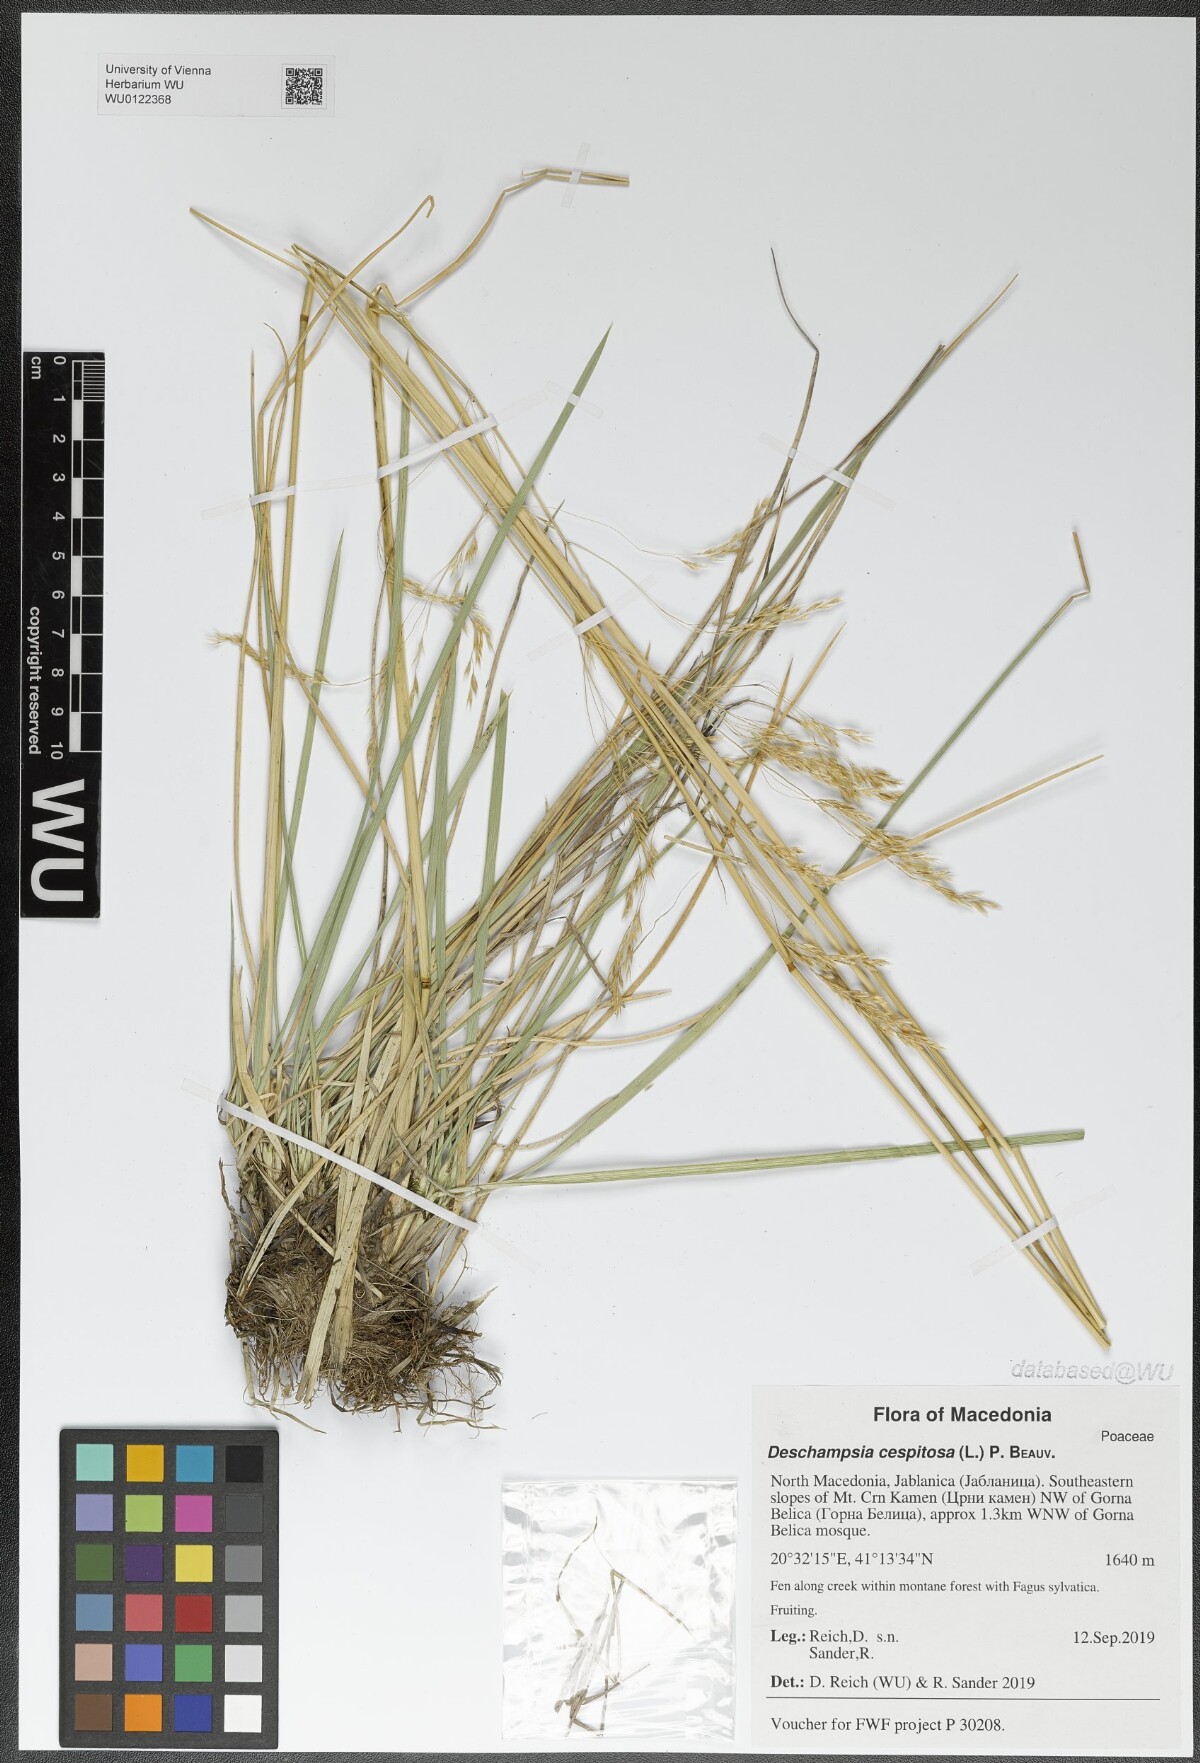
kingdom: Plantae
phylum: Tracheophyta
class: Liliopsida
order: Poales
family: Poaceae
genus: Deschampsia
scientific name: Deschampsia cespitosa
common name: Tufted hair-grass
